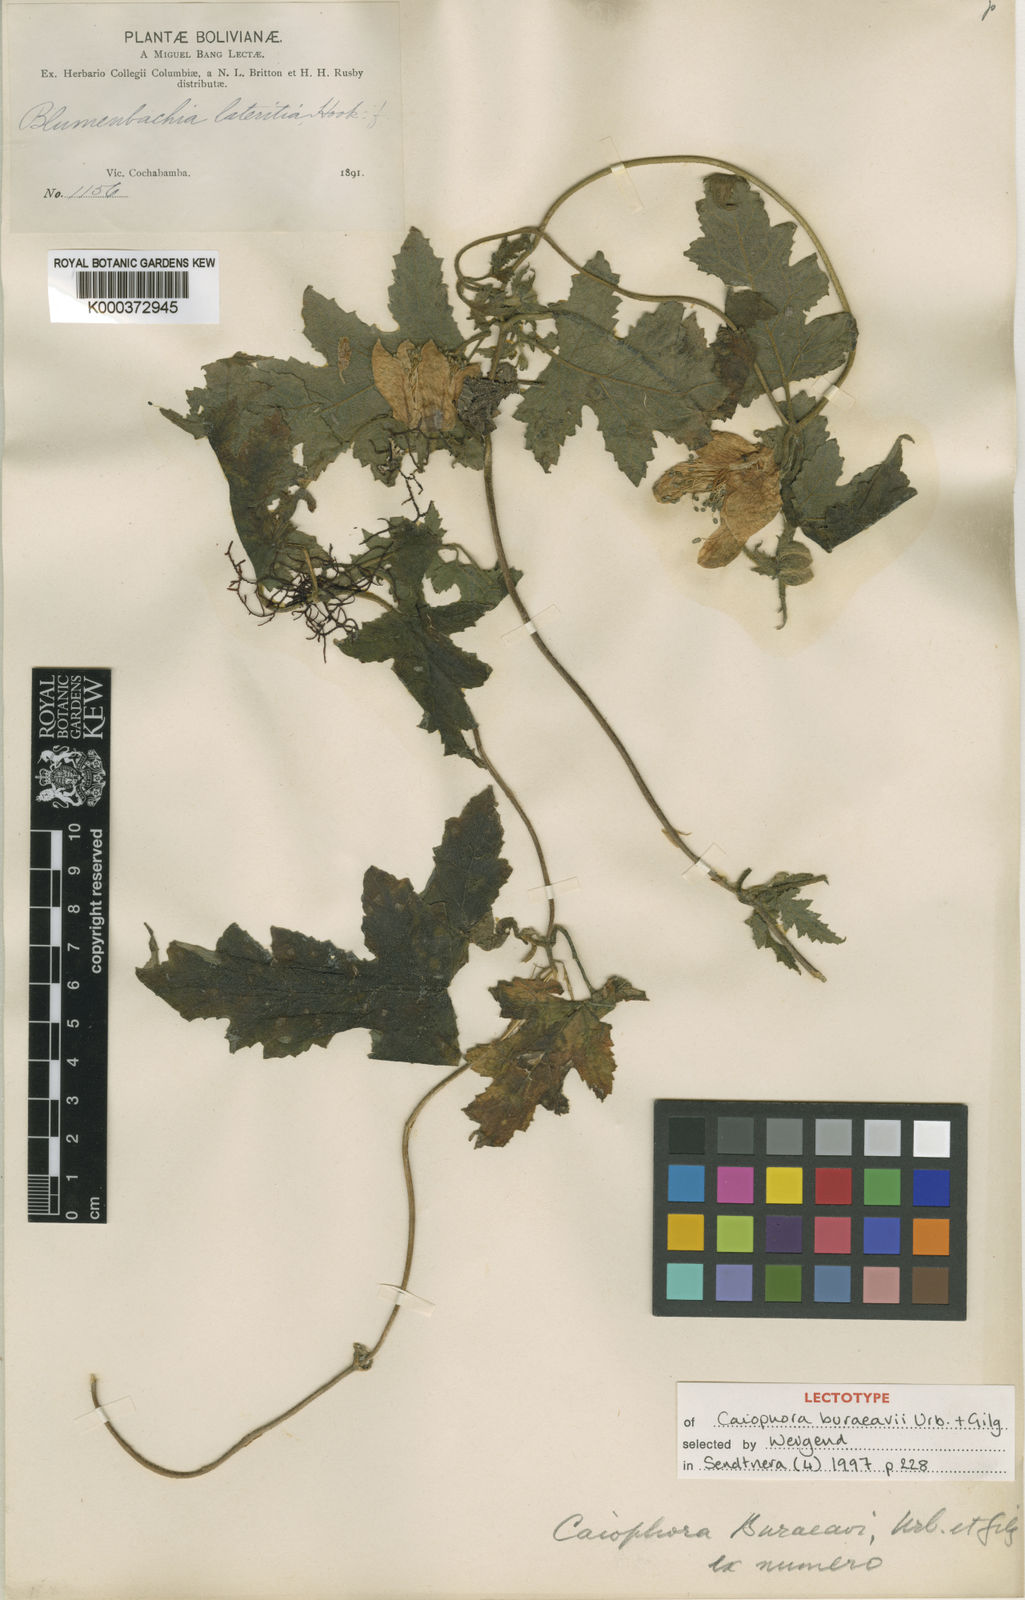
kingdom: Plantae
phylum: Tracheophyta
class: Magnoliopsida
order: Cornales
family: Loasaceae
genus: Caiophora
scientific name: Caiophora buraeavii
